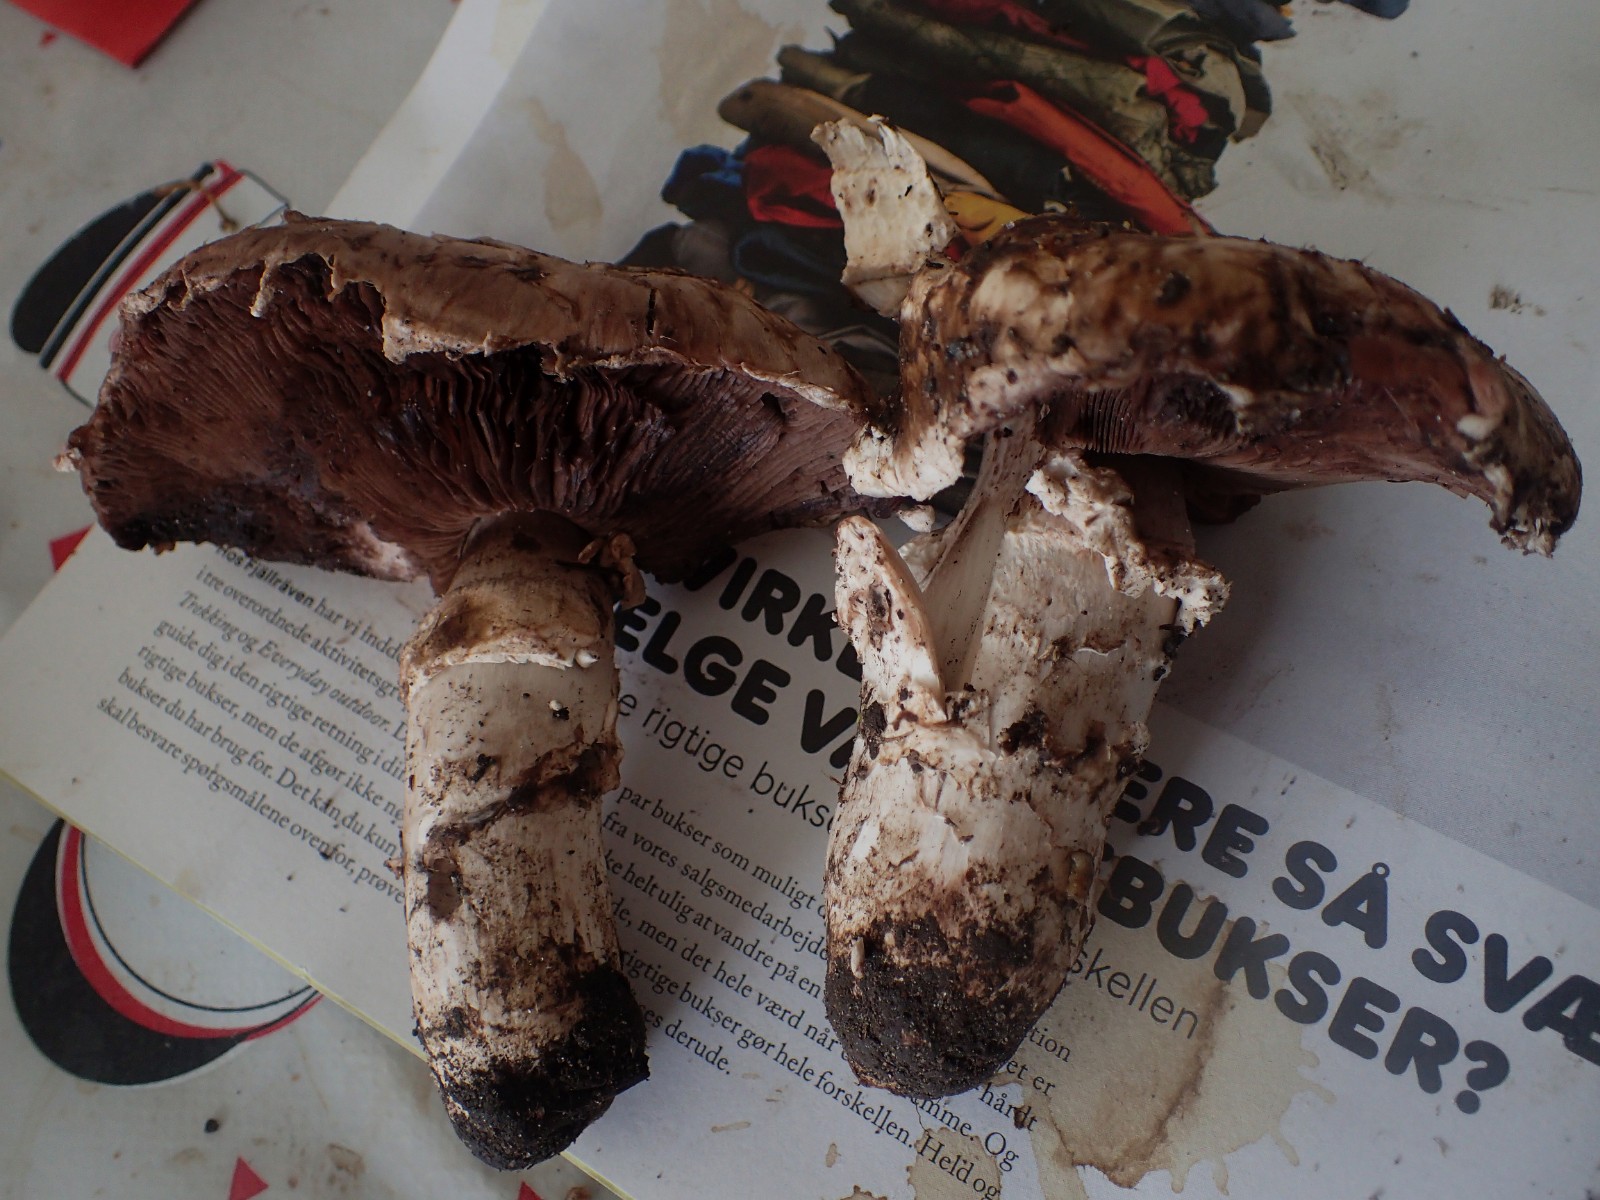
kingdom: Fungi
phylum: Basidiomycota
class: Agaricomycetes
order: Agaricales
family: Agaricaceae
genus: Agaricus
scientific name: Agaricus subperonatus
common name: knippe-champignon
